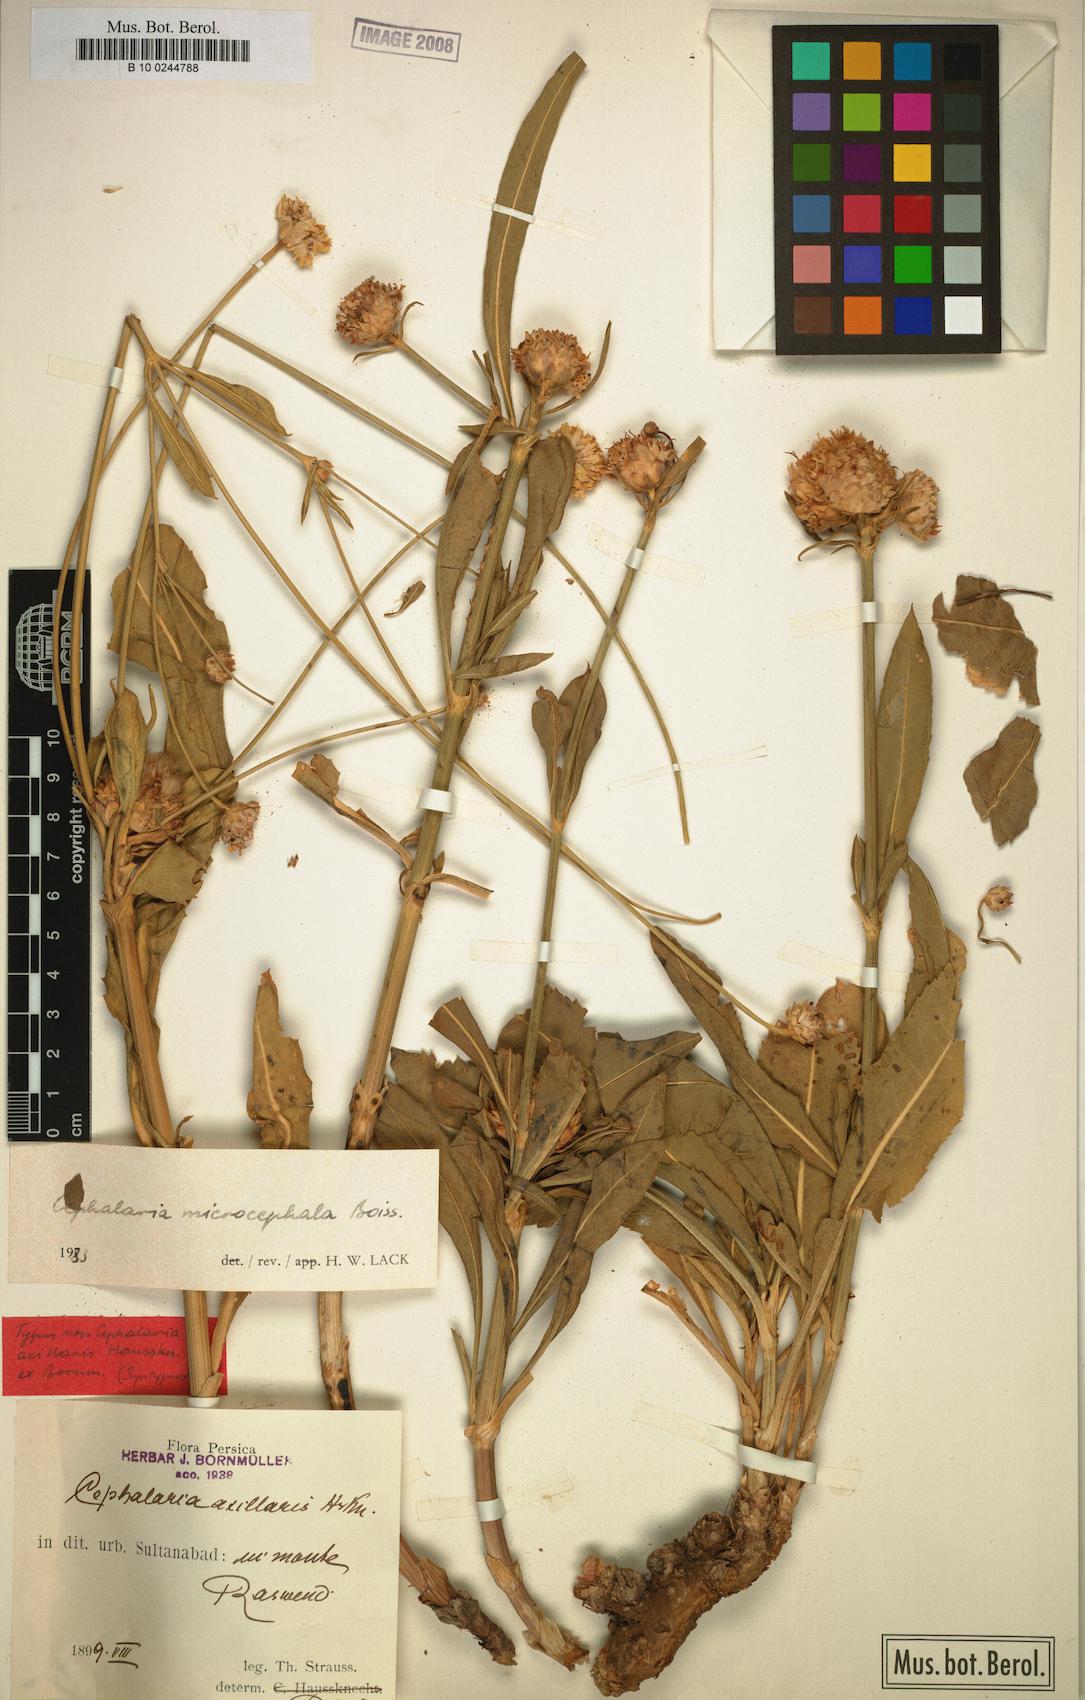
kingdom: Plantae
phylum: Tracheophyta
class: Magnoliopsida
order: Dipsacales
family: Caprifoliaceae
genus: Cephalaria
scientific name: Cephalaria microcephala
